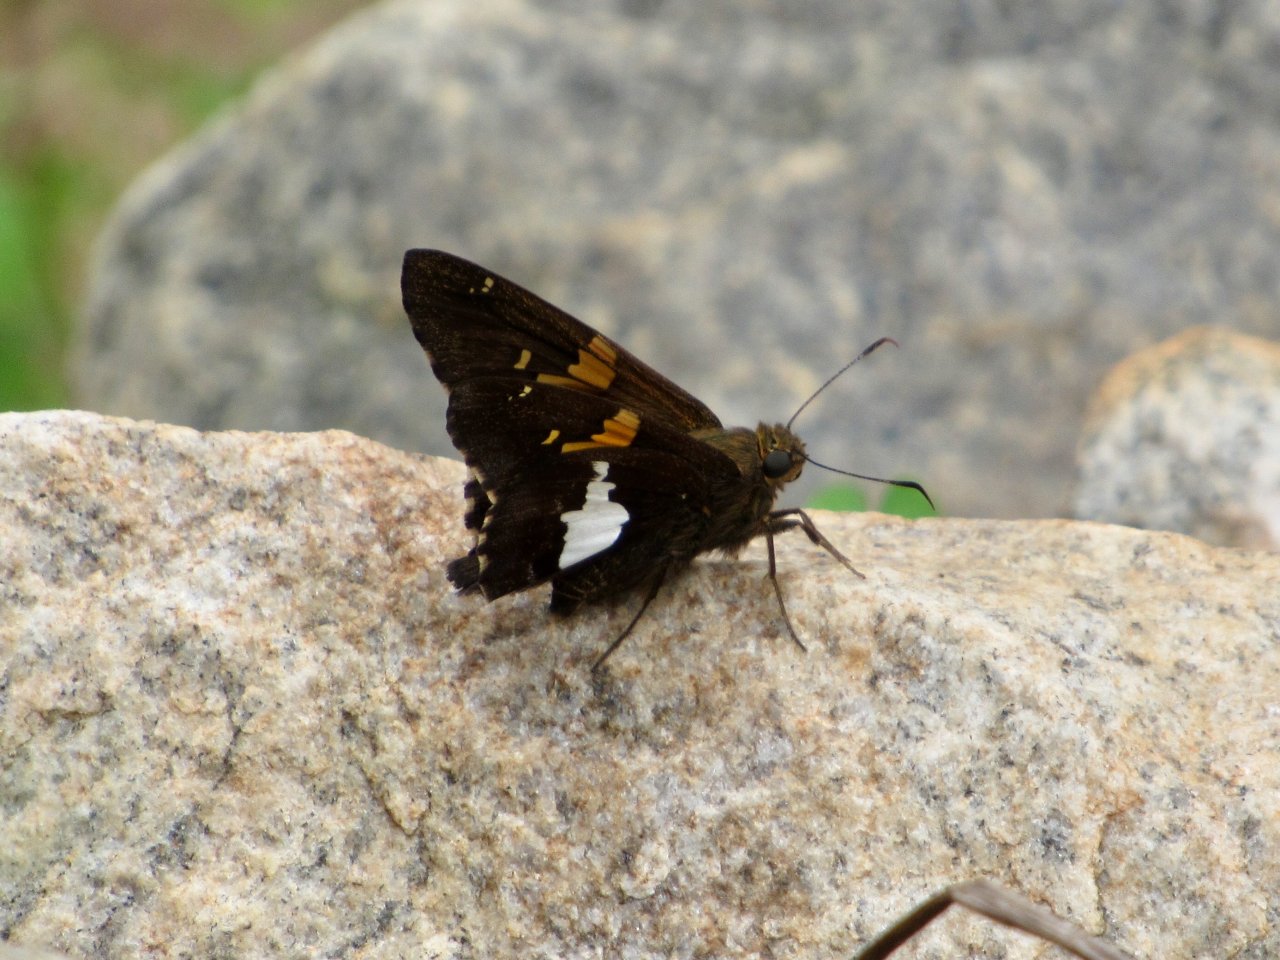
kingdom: Animalia
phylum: Arthropoda
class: Insecta
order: Lepidoptera
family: Hesperiidae
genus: Epargyreus
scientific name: Epargyreus clarus
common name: Silver-spotted Skipper
